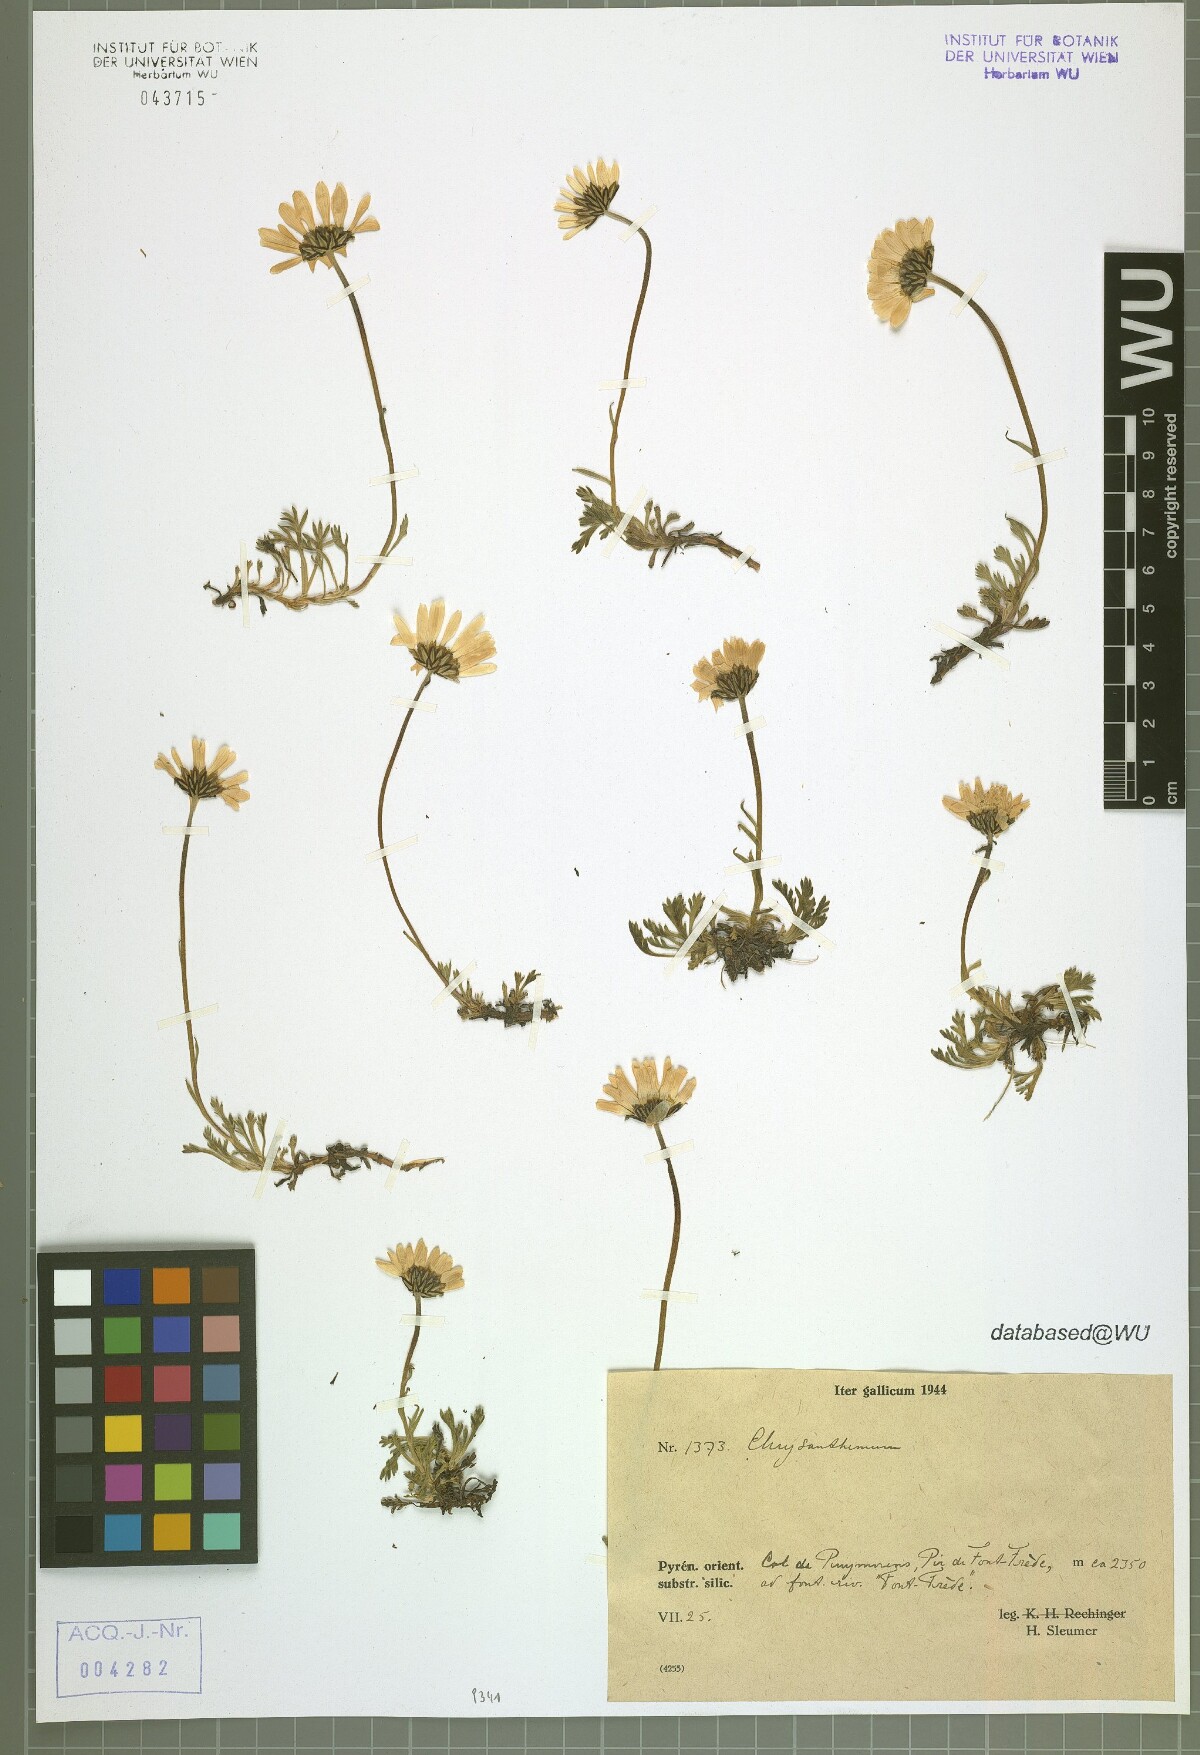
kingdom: Plantae
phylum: Tracheophyta
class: Magnoliopsida
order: Asterales
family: Asteraceae
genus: Chrysanthemum
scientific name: Chrysanthemum
